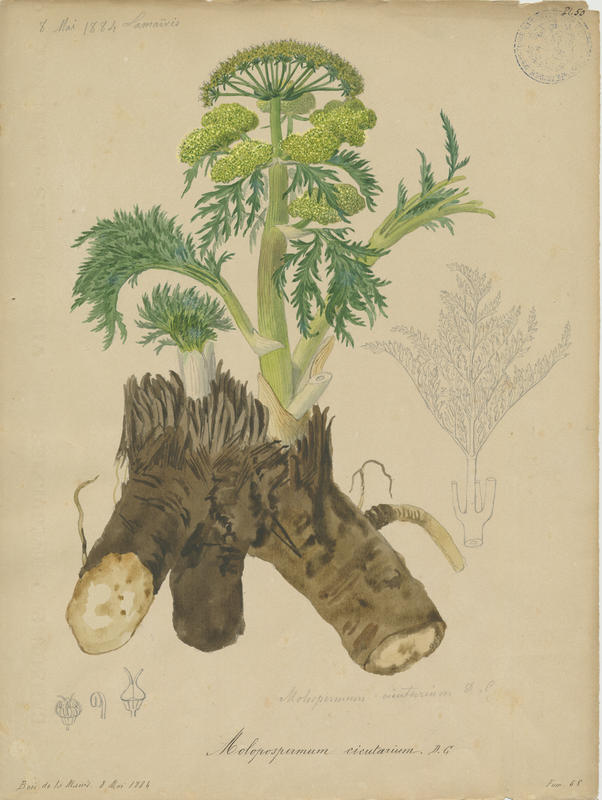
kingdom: Plantae
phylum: Tracheophyta
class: Magnoliopsida
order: Apiales
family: Apiaceae
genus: Molopospermum
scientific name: Molopospermum peloponnesiacum
